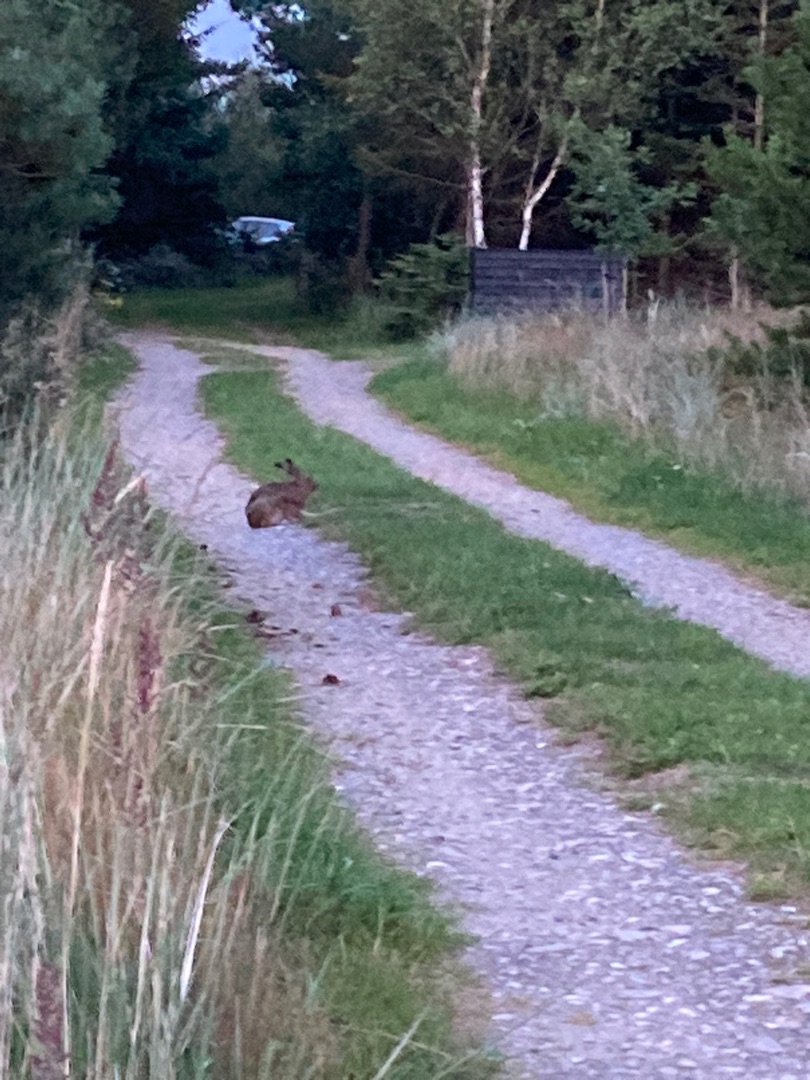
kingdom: Animalia
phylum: Chordata
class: Mammalia
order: Lagomorpha
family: Leporidae
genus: Lepus
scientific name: Lepus europaeus
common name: Hare
